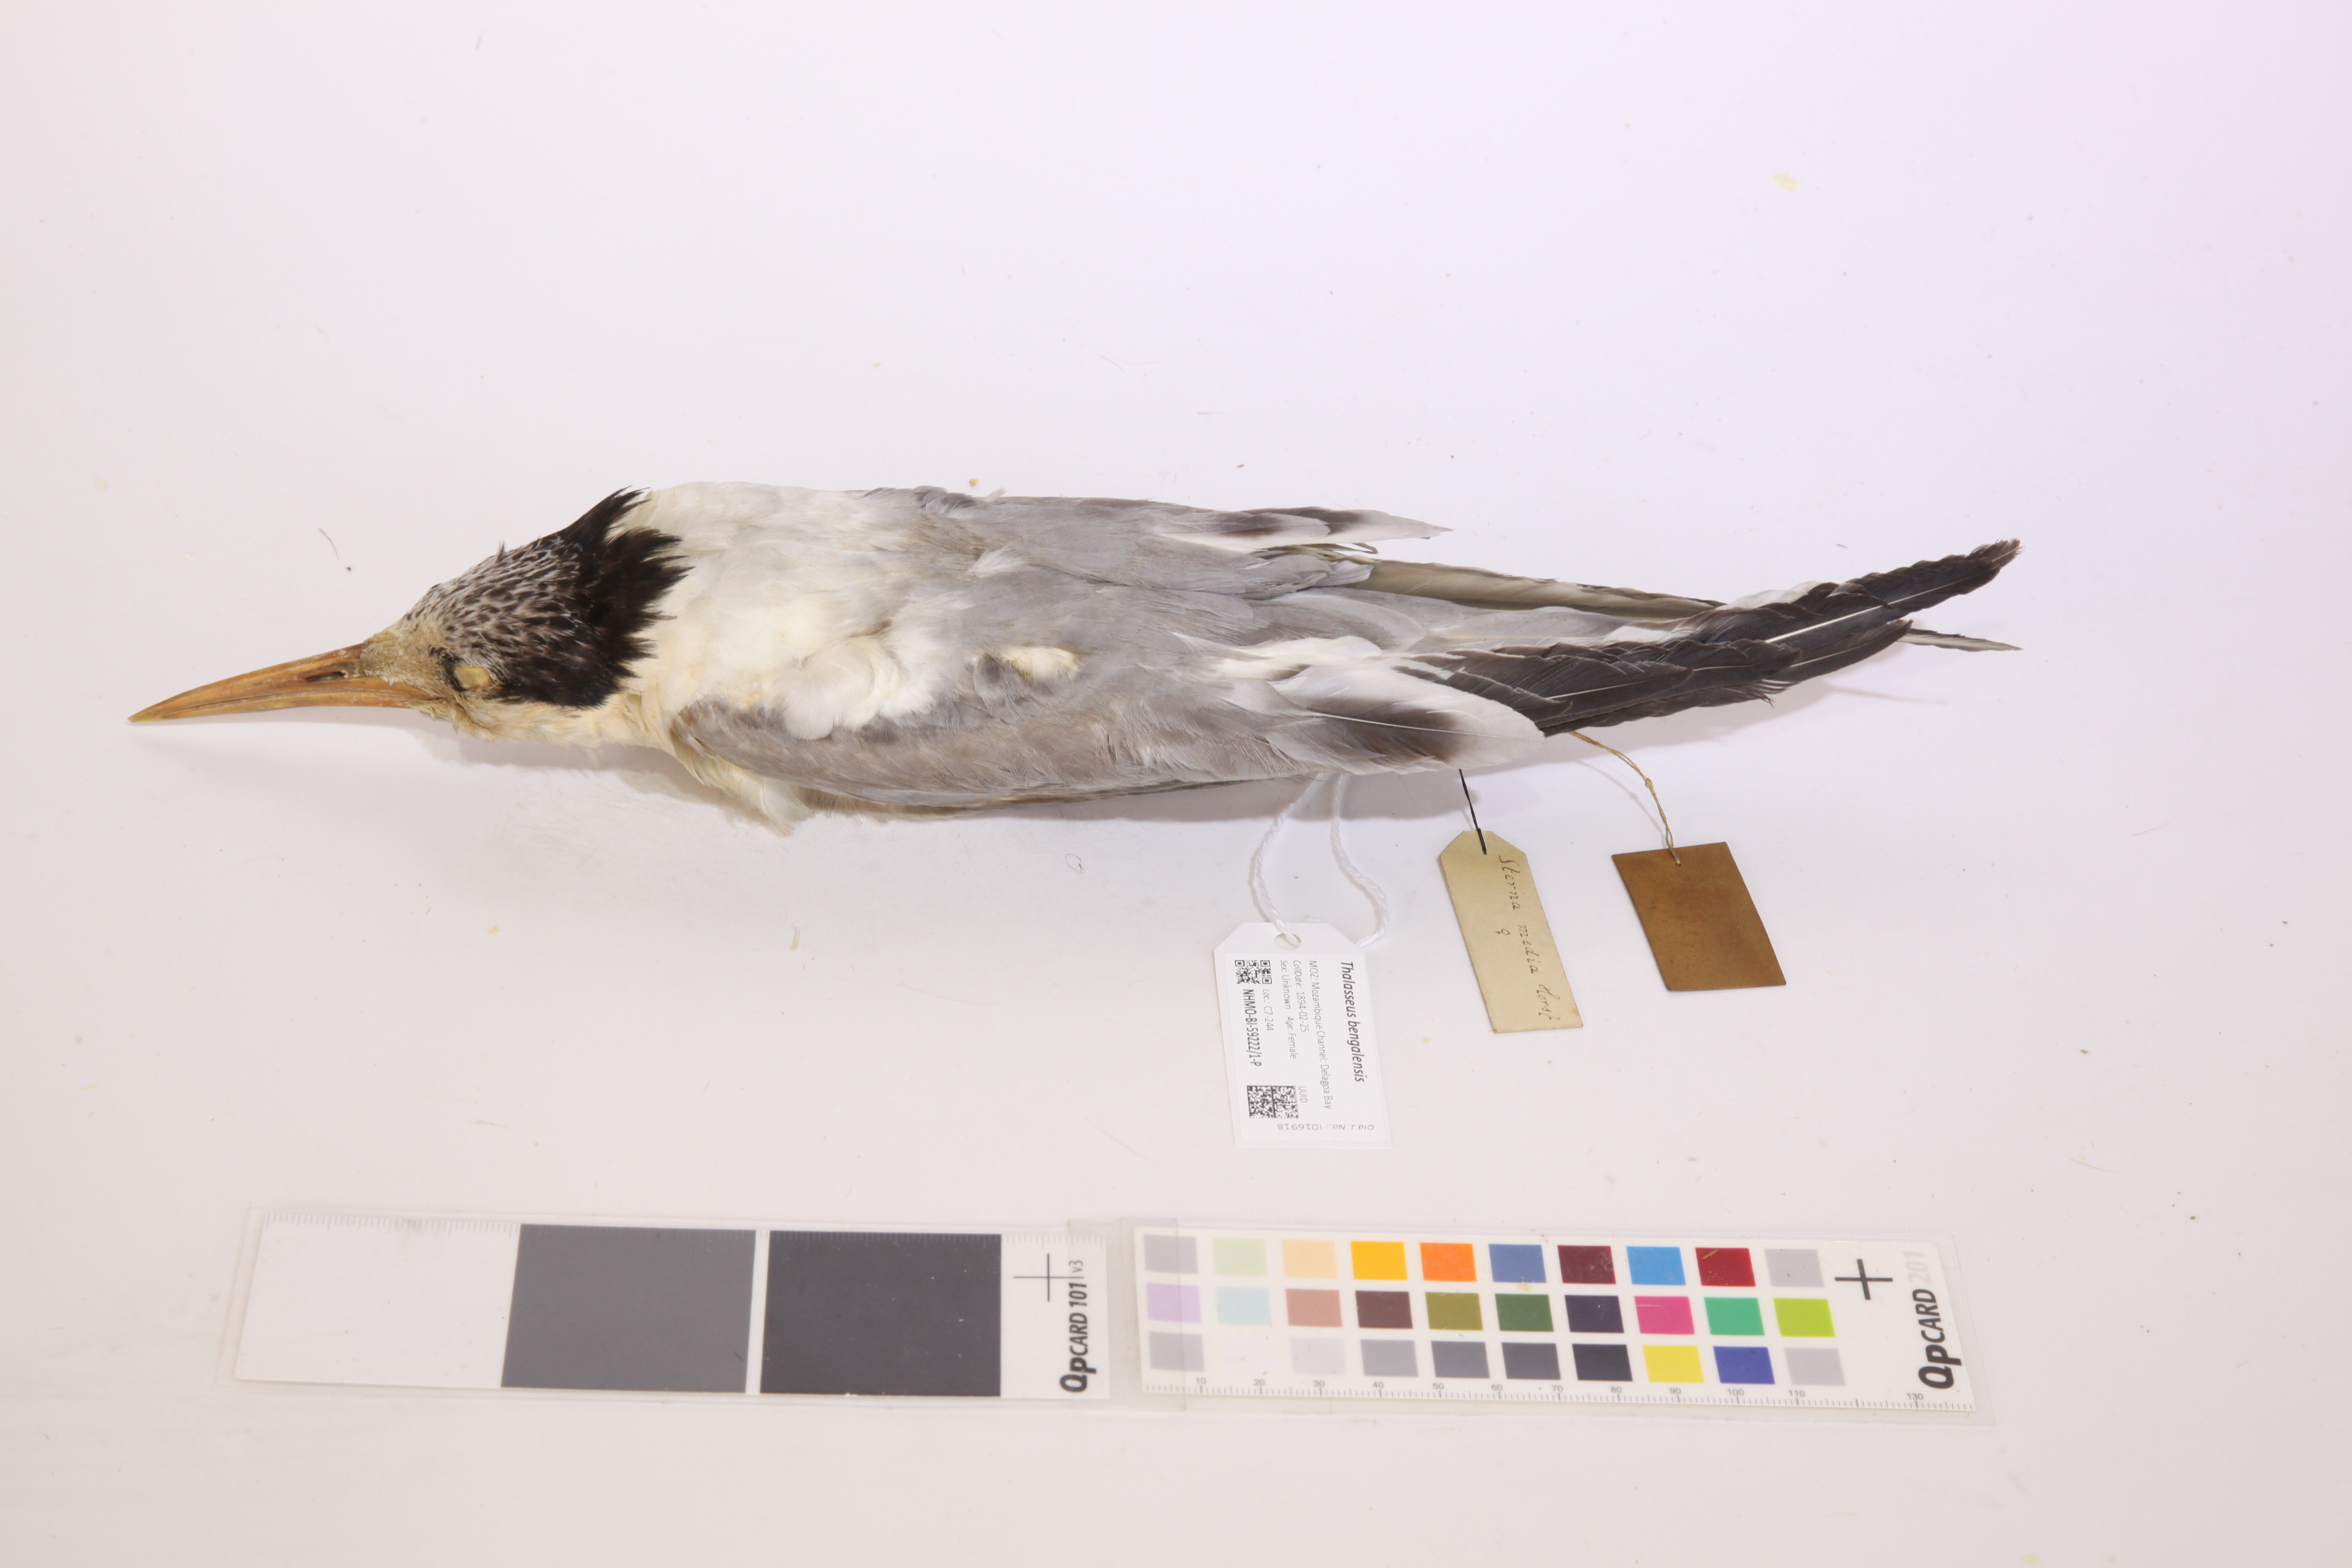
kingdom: Animalia
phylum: Chordata
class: Aves
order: Charadriiformes
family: Laridae
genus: Thalasseus
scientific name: Thalasseus bengalensis
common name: Lesser crested tern
